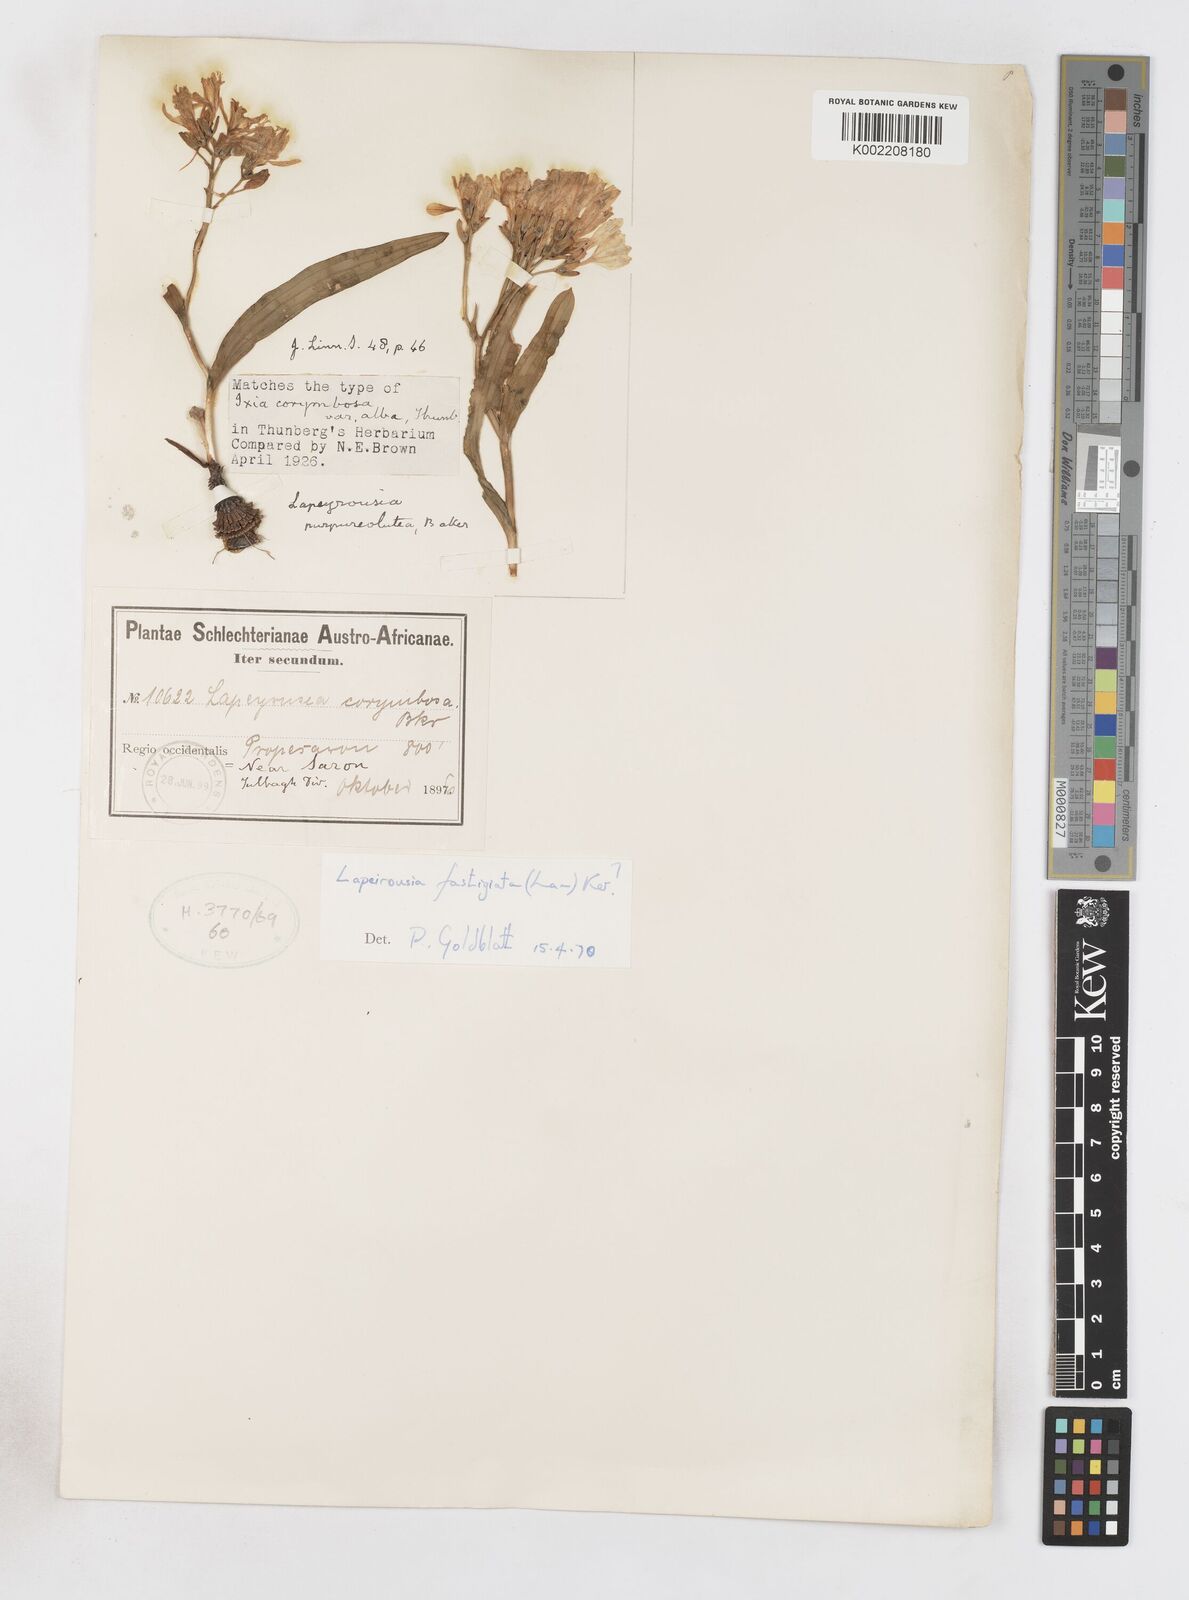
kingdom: Plantae
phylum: Tracheophyta
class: Liliopsida
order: Asparagales
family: Iridaceae
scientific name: Iridaceae
